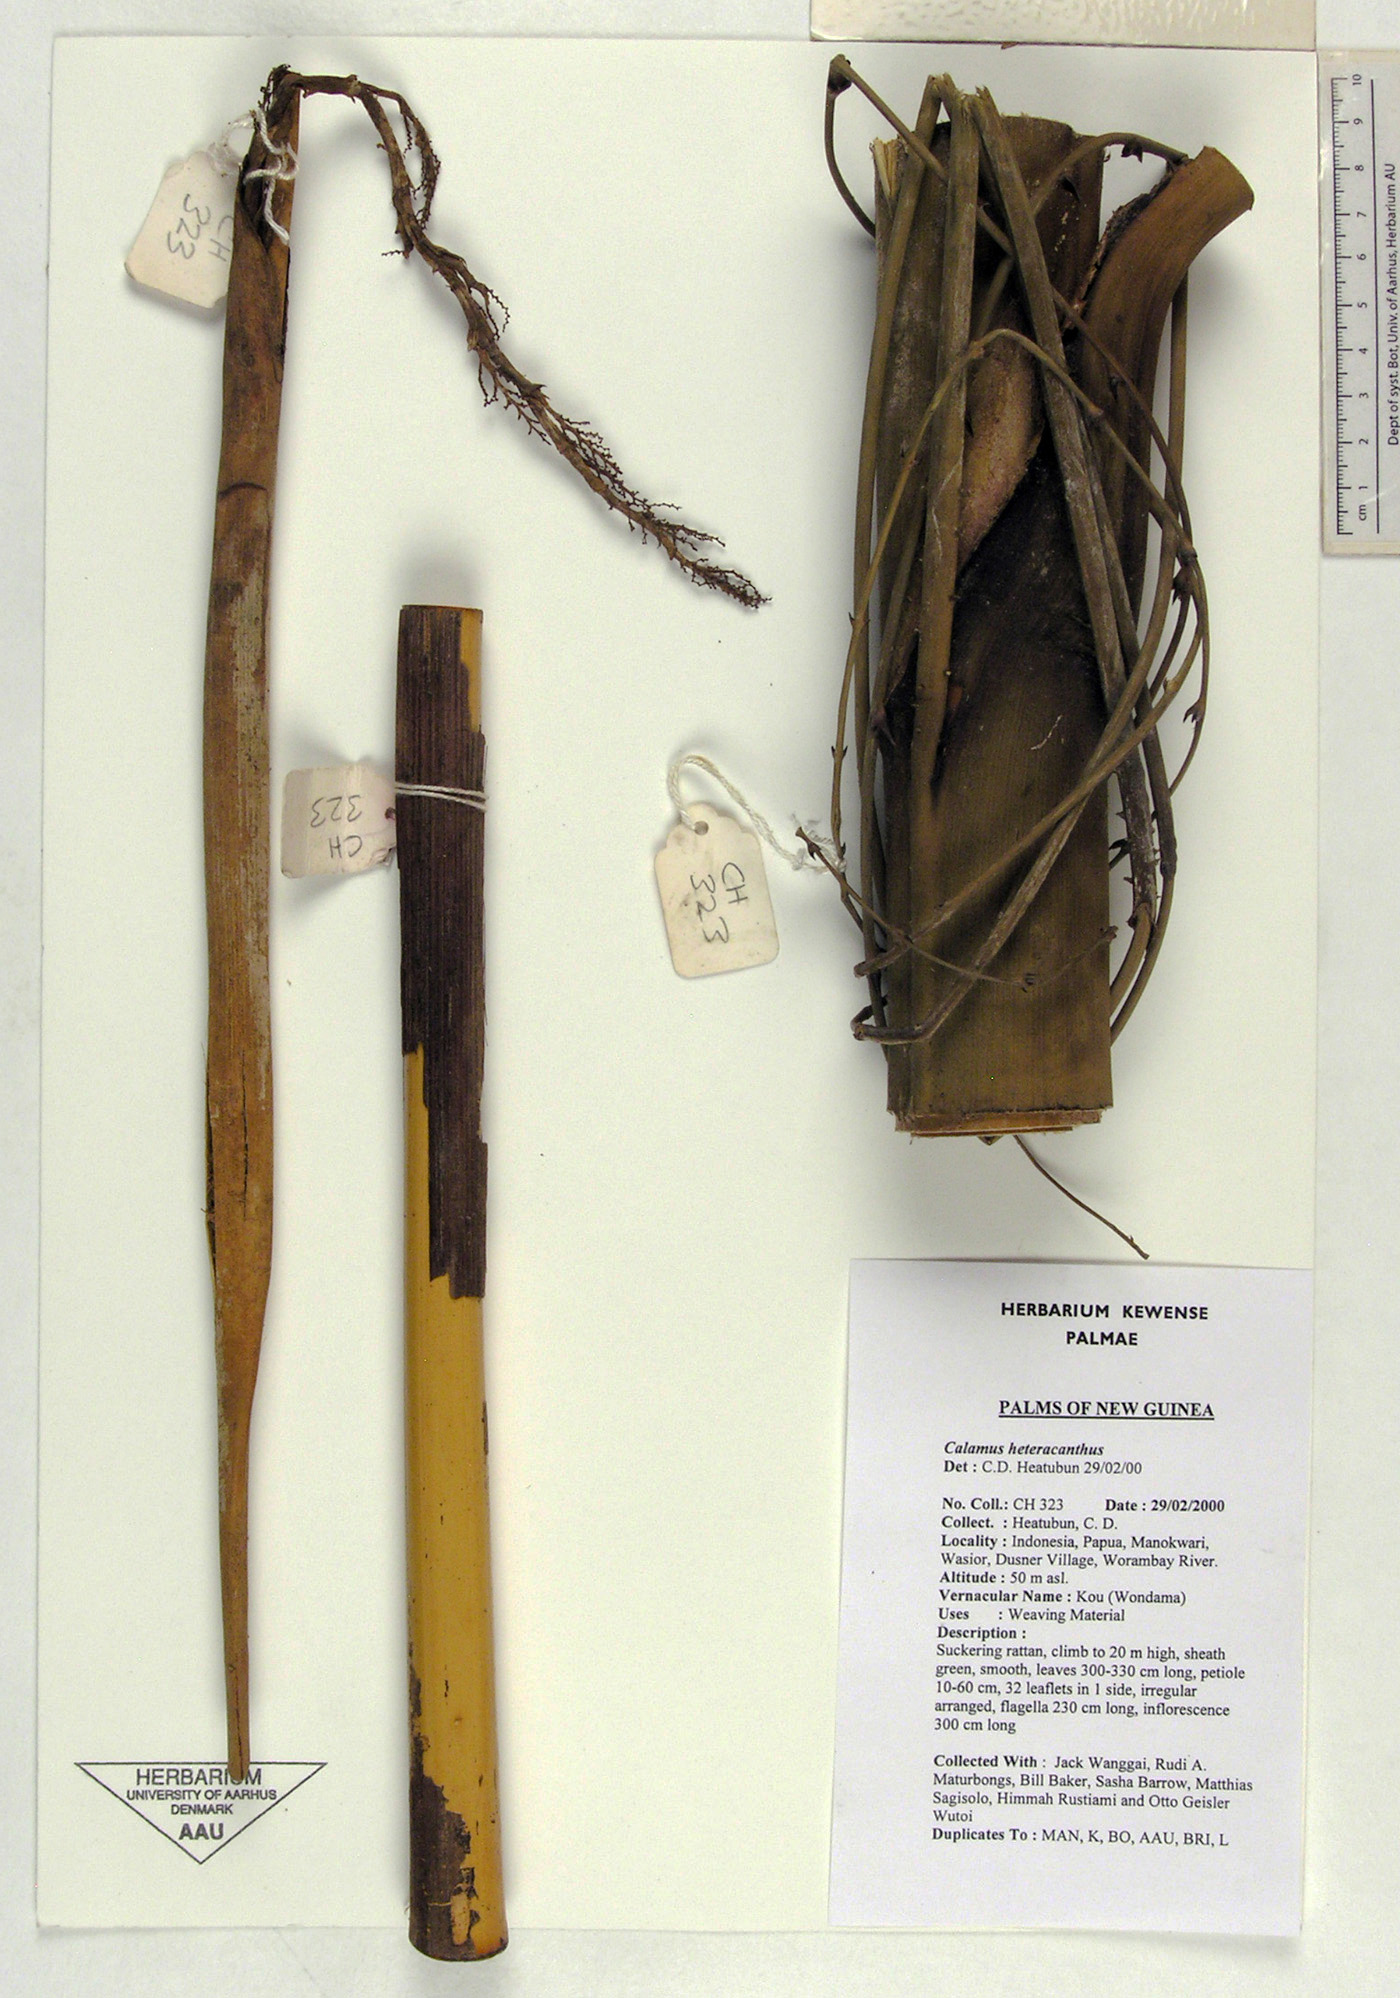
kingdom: Plantae
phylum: Tracheophyta
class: Liliopsida
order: Arecales
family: Arecaceae
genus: Calamus
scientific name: Calamus heteracanthus
